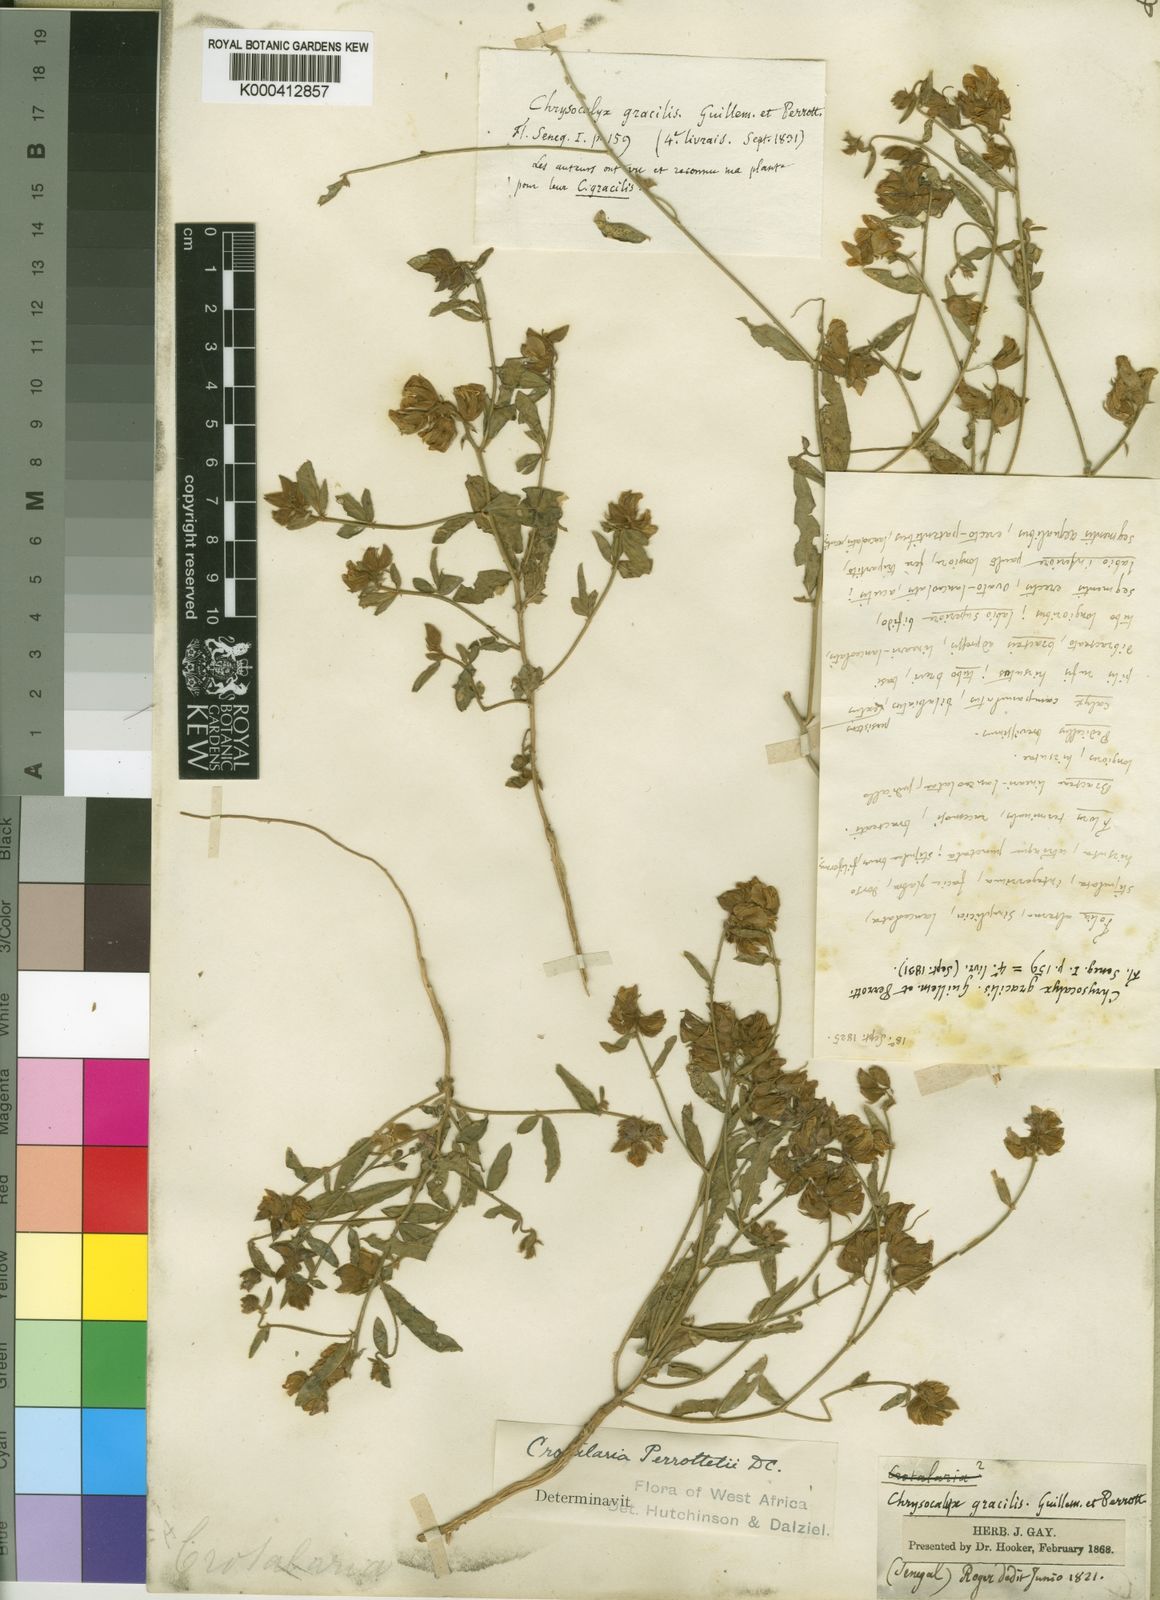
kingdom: Plantae
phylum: Tracheophyta
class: Magnoliopsida
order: Fabales
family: Fabaceae
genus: Crotalaria
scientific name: Crotalaria perrottetii
